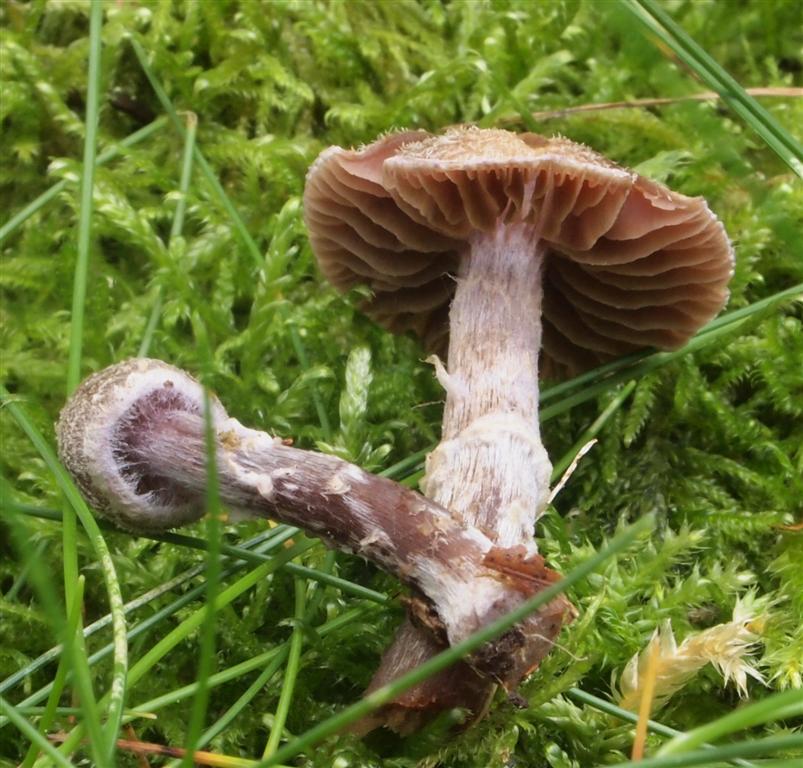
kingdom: Fungi
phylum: Basidiomycota
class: Agaricomycetes
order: Agaricales
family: Cortinariaceae
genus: Cortinarius
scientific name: Cortinarius
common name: pelargonie-slørhat
